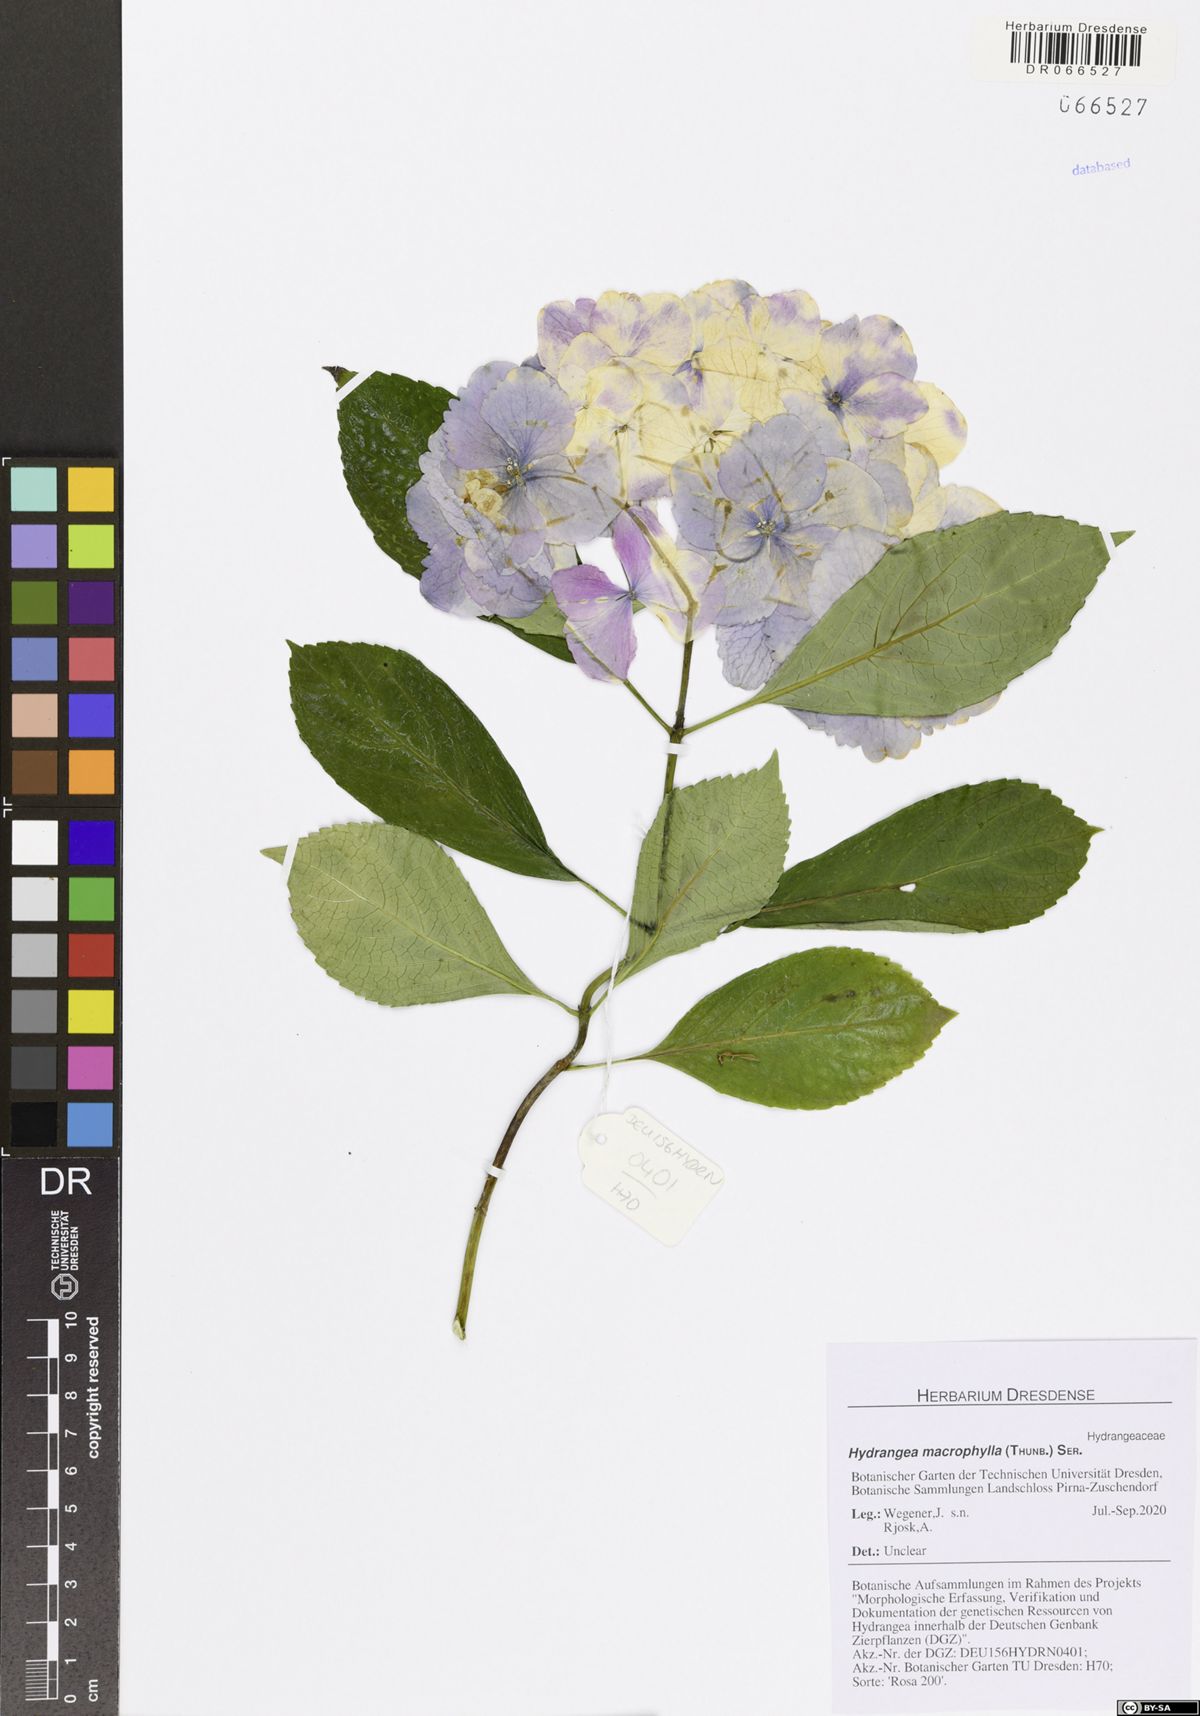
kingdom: Plantae
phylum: Tracheophyta
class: Magnoliopsida
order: Cornales
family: Hydrangeaceae
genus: Hydrangea
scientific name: Hydrangea macrophylla
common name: Hydrangea
